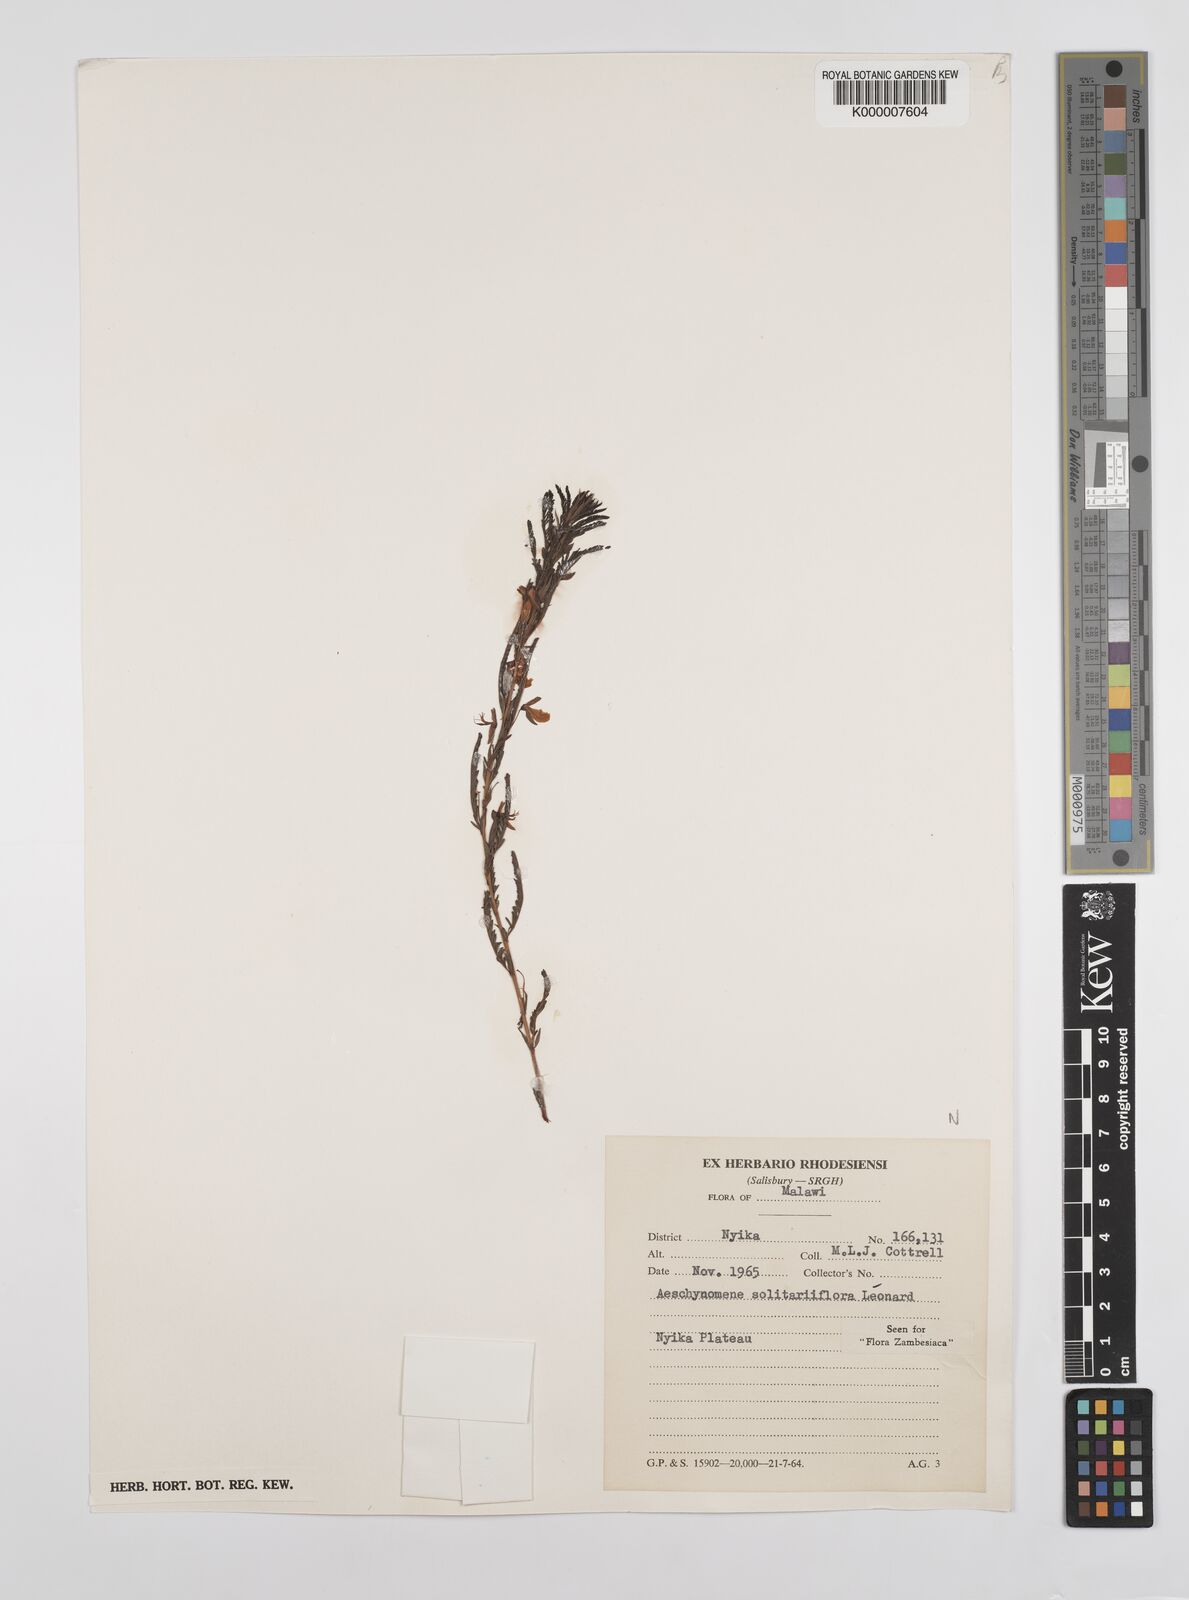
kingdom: Plantae
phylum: Tracheophyta
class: Magnoliopsida
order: Fabales
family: Fabaceae
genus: Aeschynomene
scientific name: Aeschynomene solitariiflora
